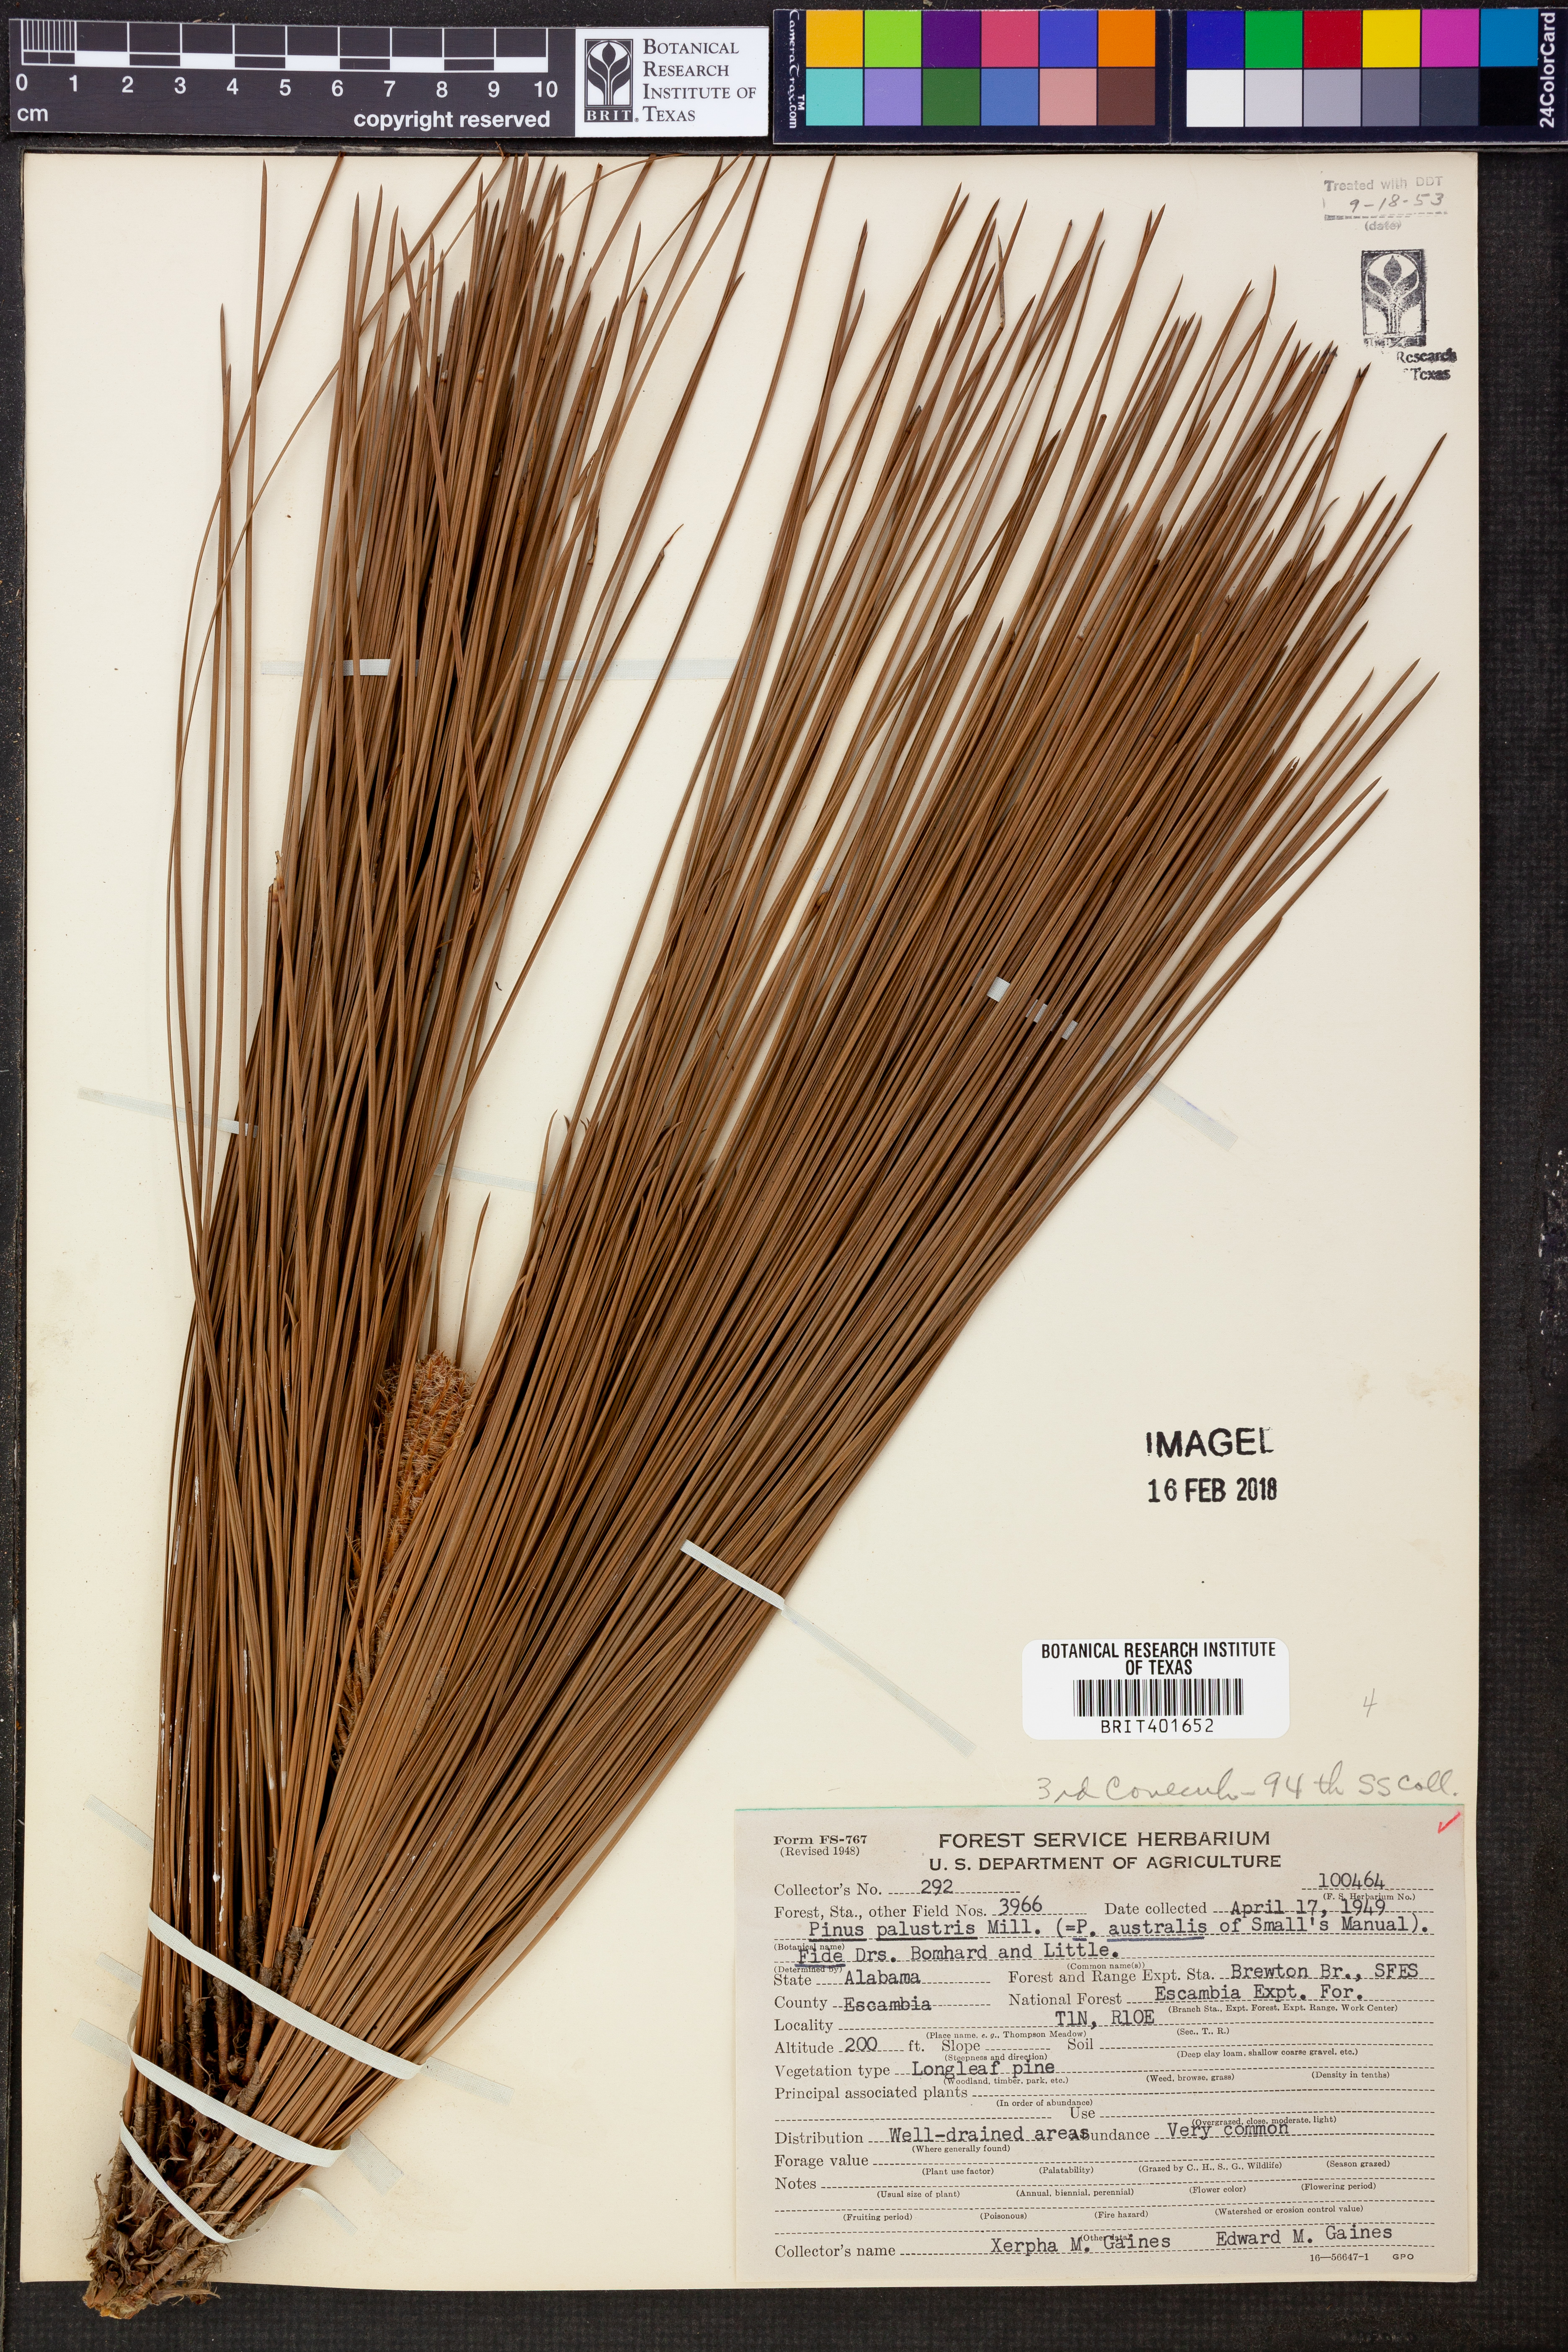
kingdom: Plantae
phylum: Tracheophyta
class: Pinopsida
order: Pinales
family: Pinaceae
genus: Pinus
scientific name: Pinus palustris
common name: Longleaf pine
